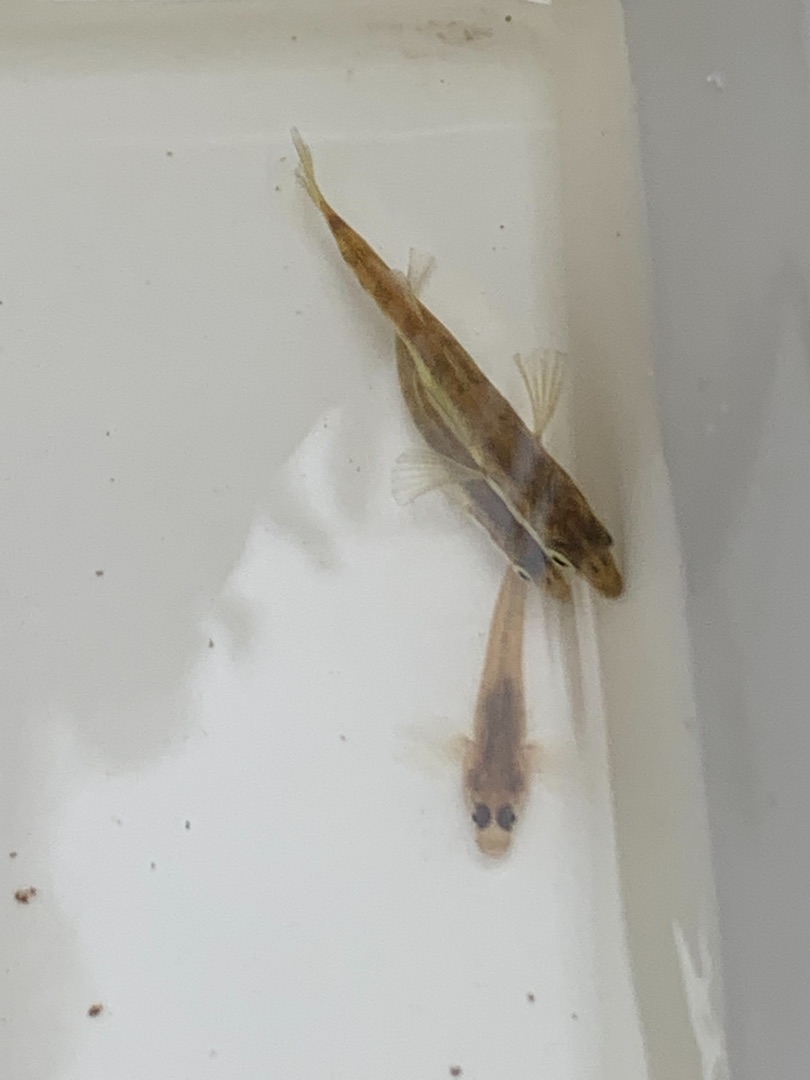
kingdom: Animalia
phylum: Chordata
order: Gasterosteiformes
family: Gasterosteidae
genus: Gasterosteus
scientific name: Gasterosteus aculeatus
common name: Trepigget hundestejle
